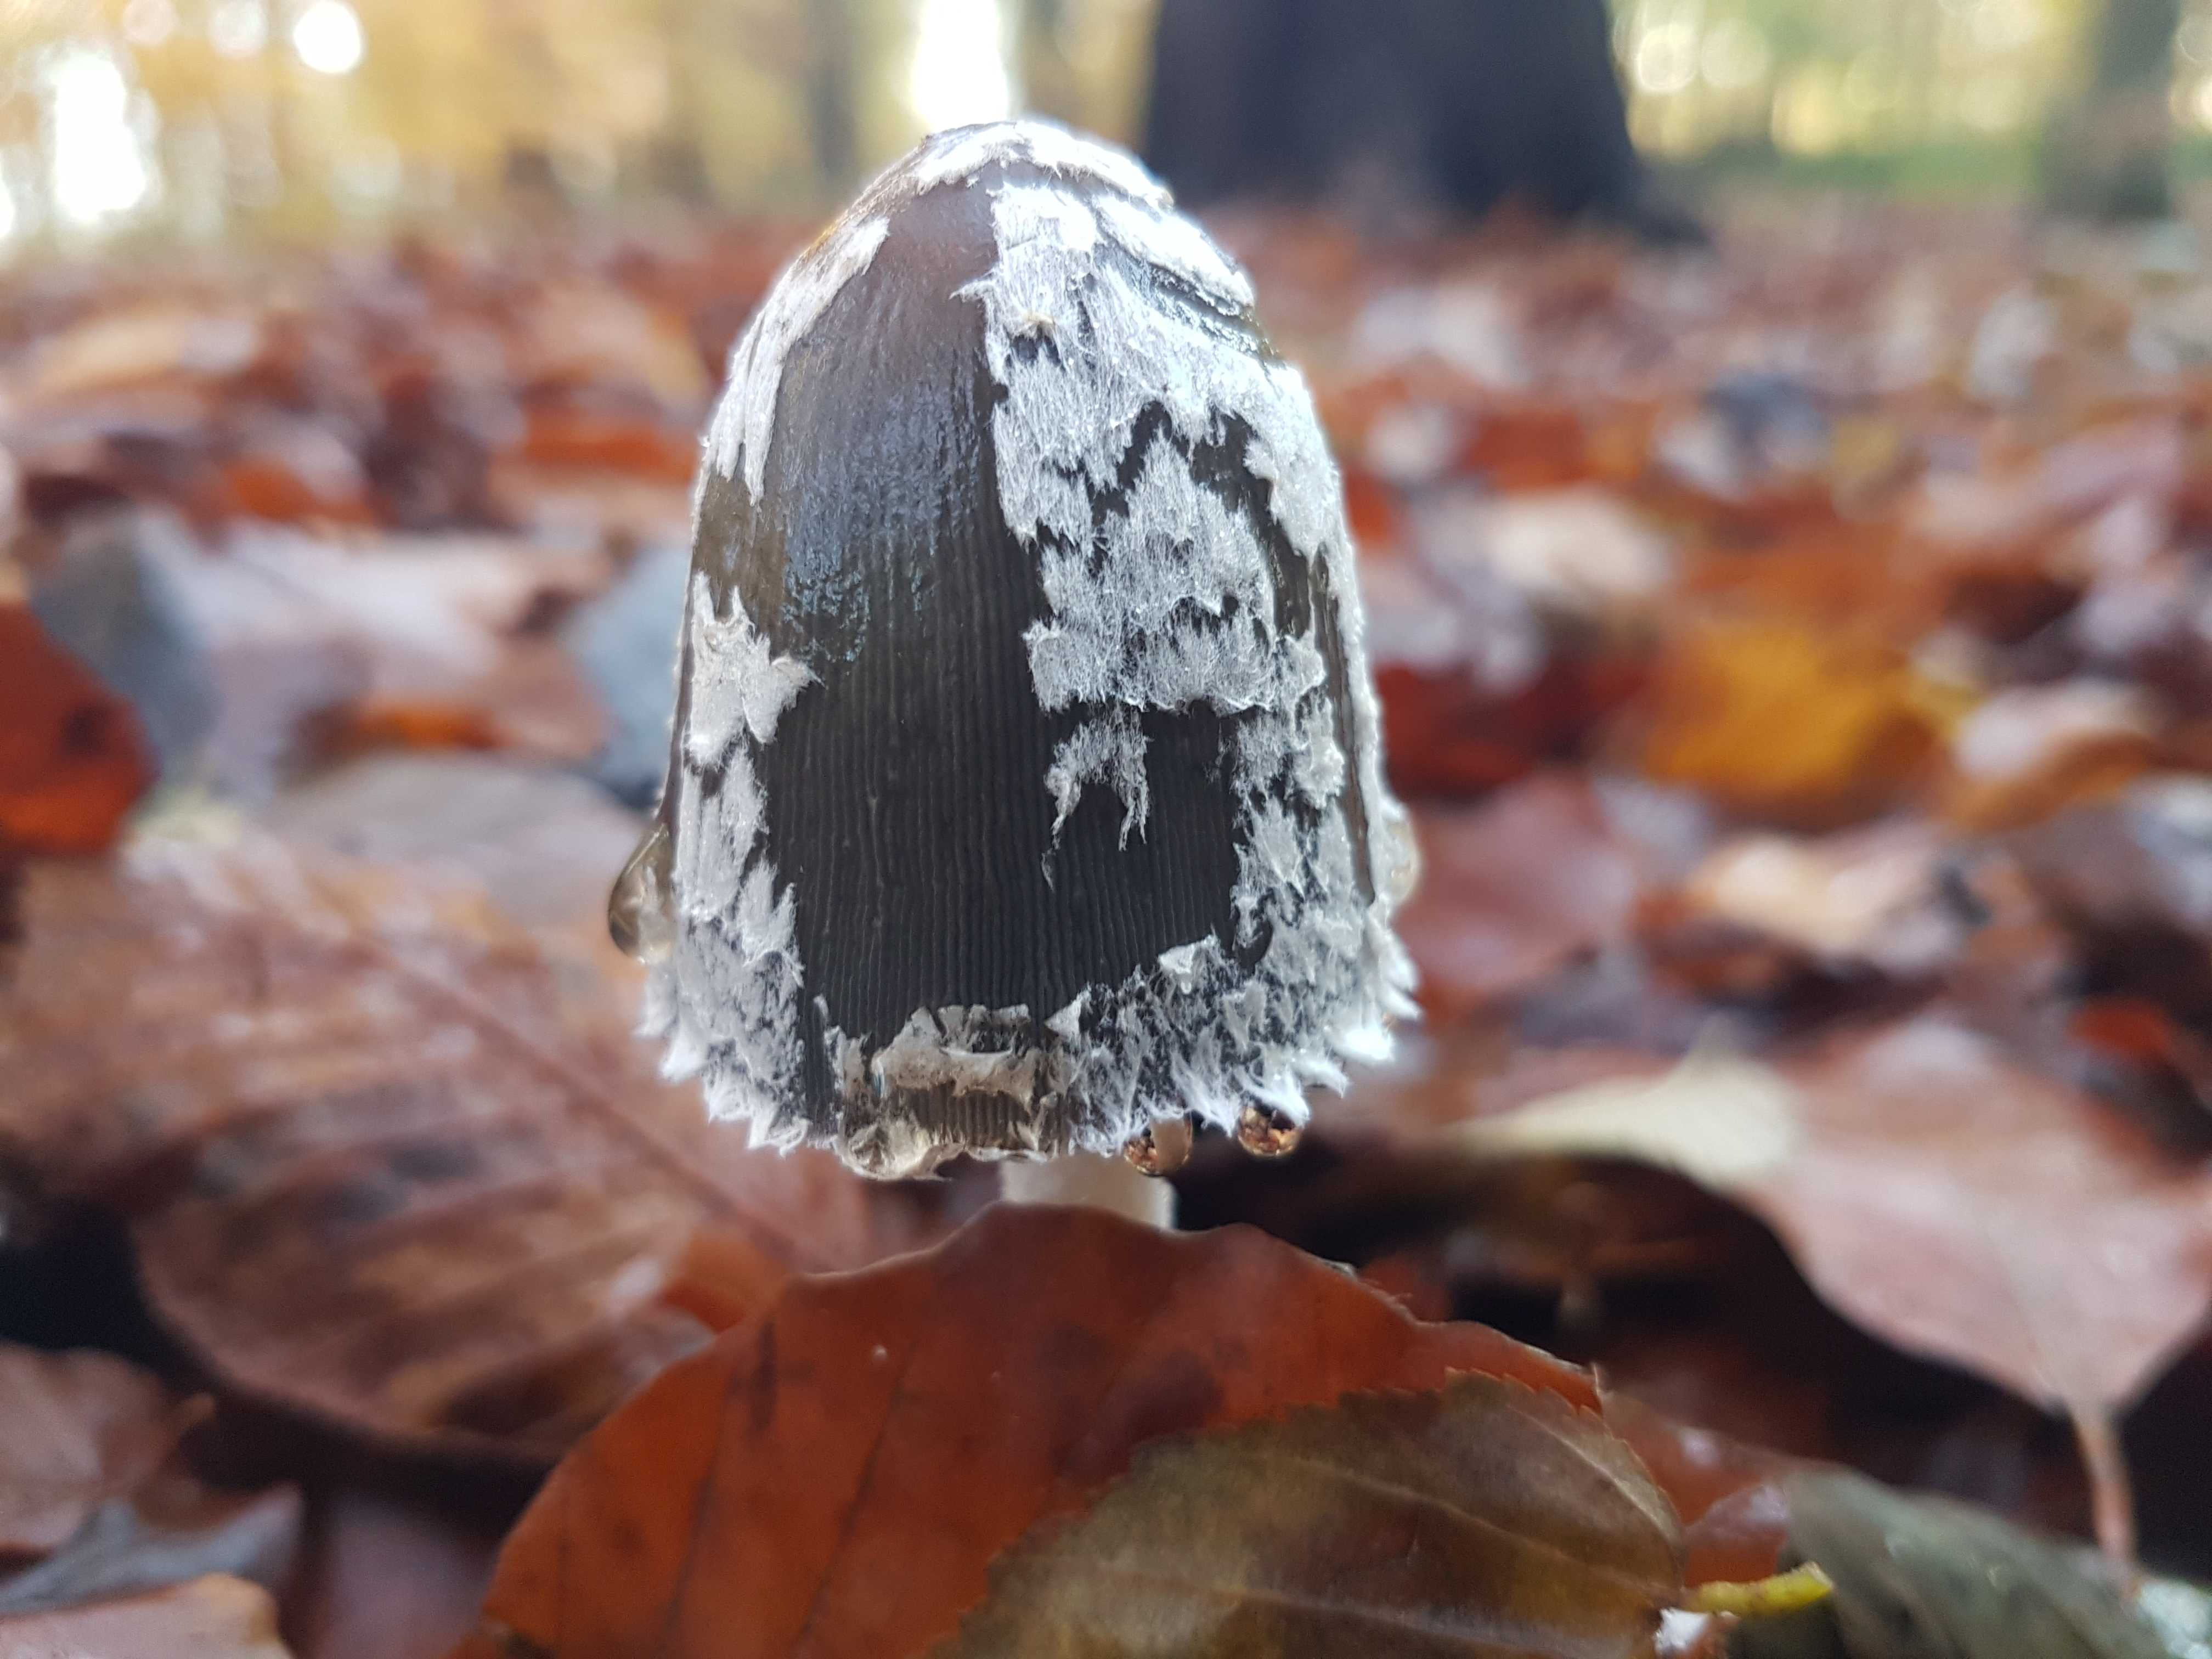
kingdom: Fungi
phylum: Basidiomycota
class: Agaricomycetes
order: Agaricales
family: Psathyrellaceae
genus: Coprinopsis
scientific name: Coprinopsis picacea
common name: skade-blækhat
